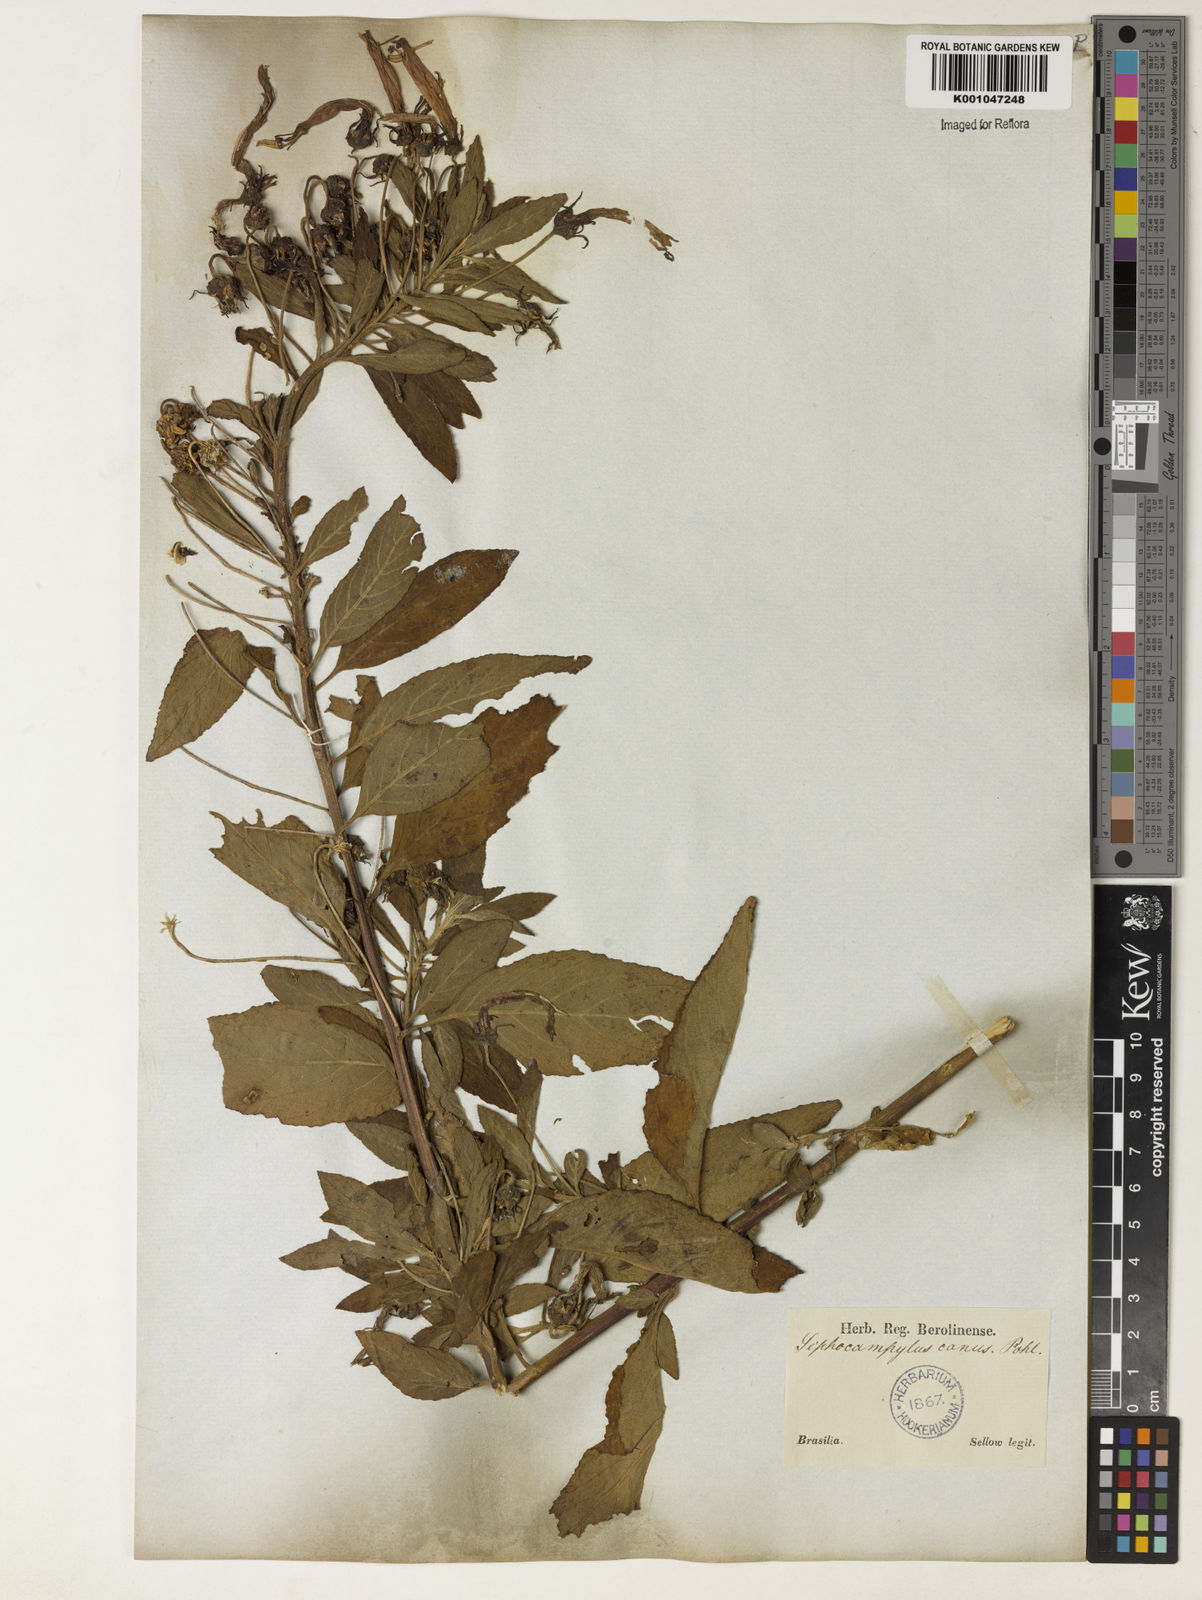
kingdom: Plantae
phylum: Tracheophyta
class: Magnoliopsida
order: Asterales
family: Campanulaceae
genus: Siphocampylus
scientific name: Siphocampylus macropodus
